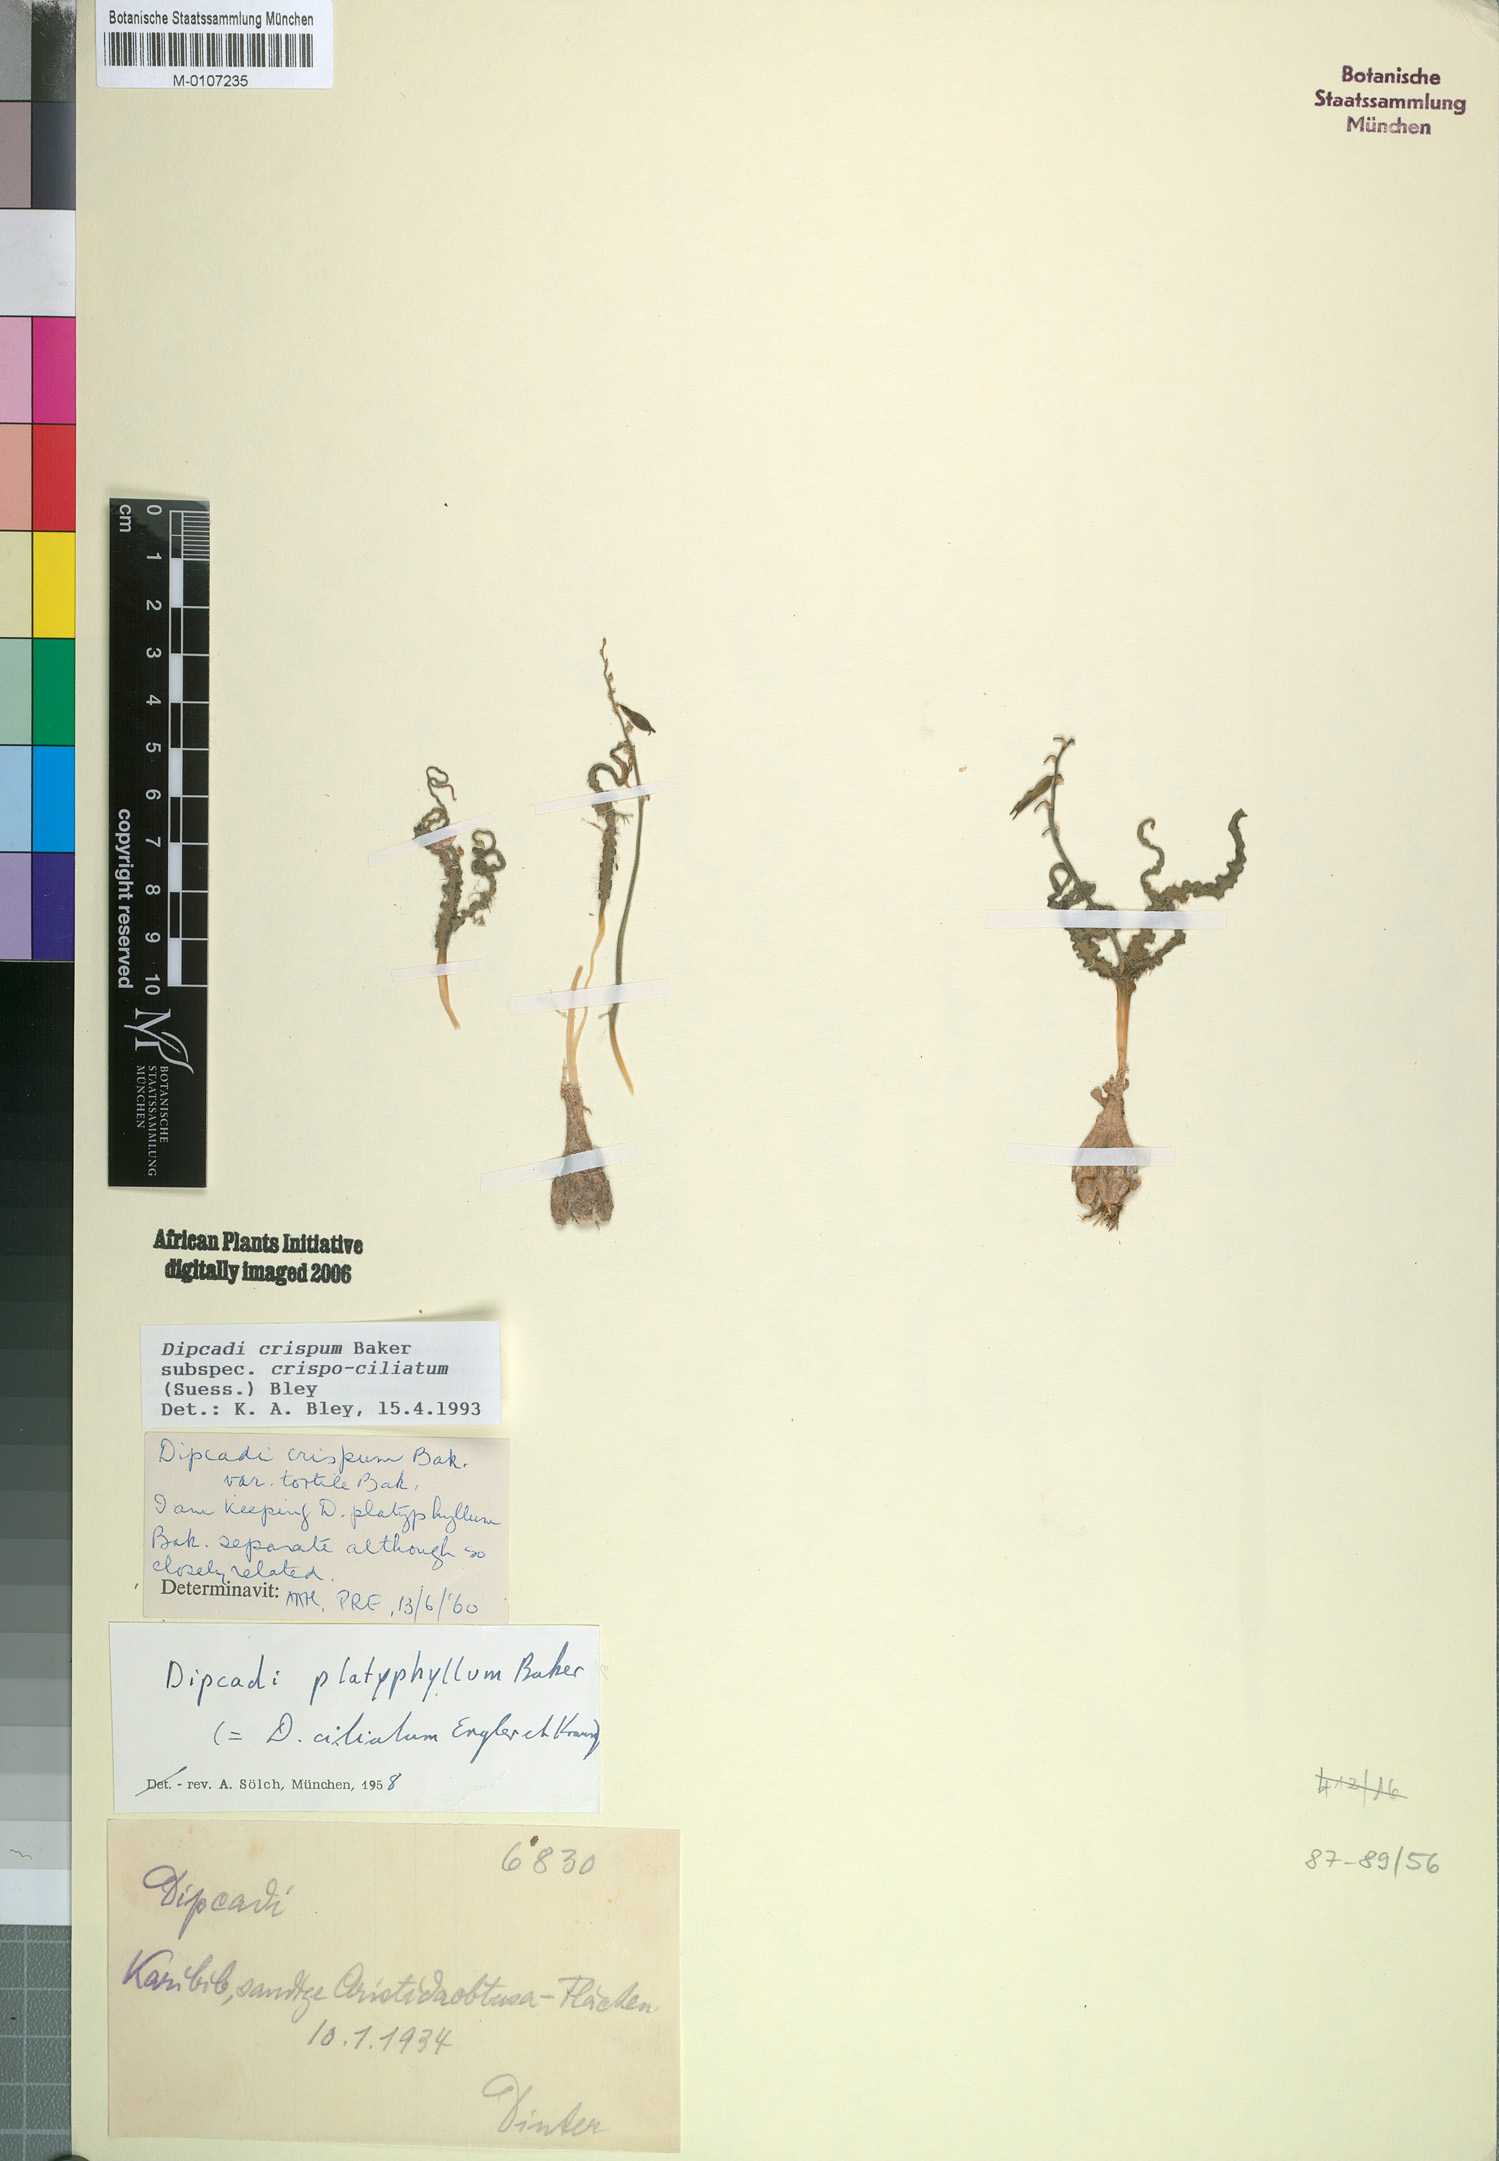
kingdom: Plantae
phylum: Tracheophyta
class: Liliopsida
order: Asparagales
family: Asparagaceae
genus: Dipcadi
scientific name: Dipcadi crispum
